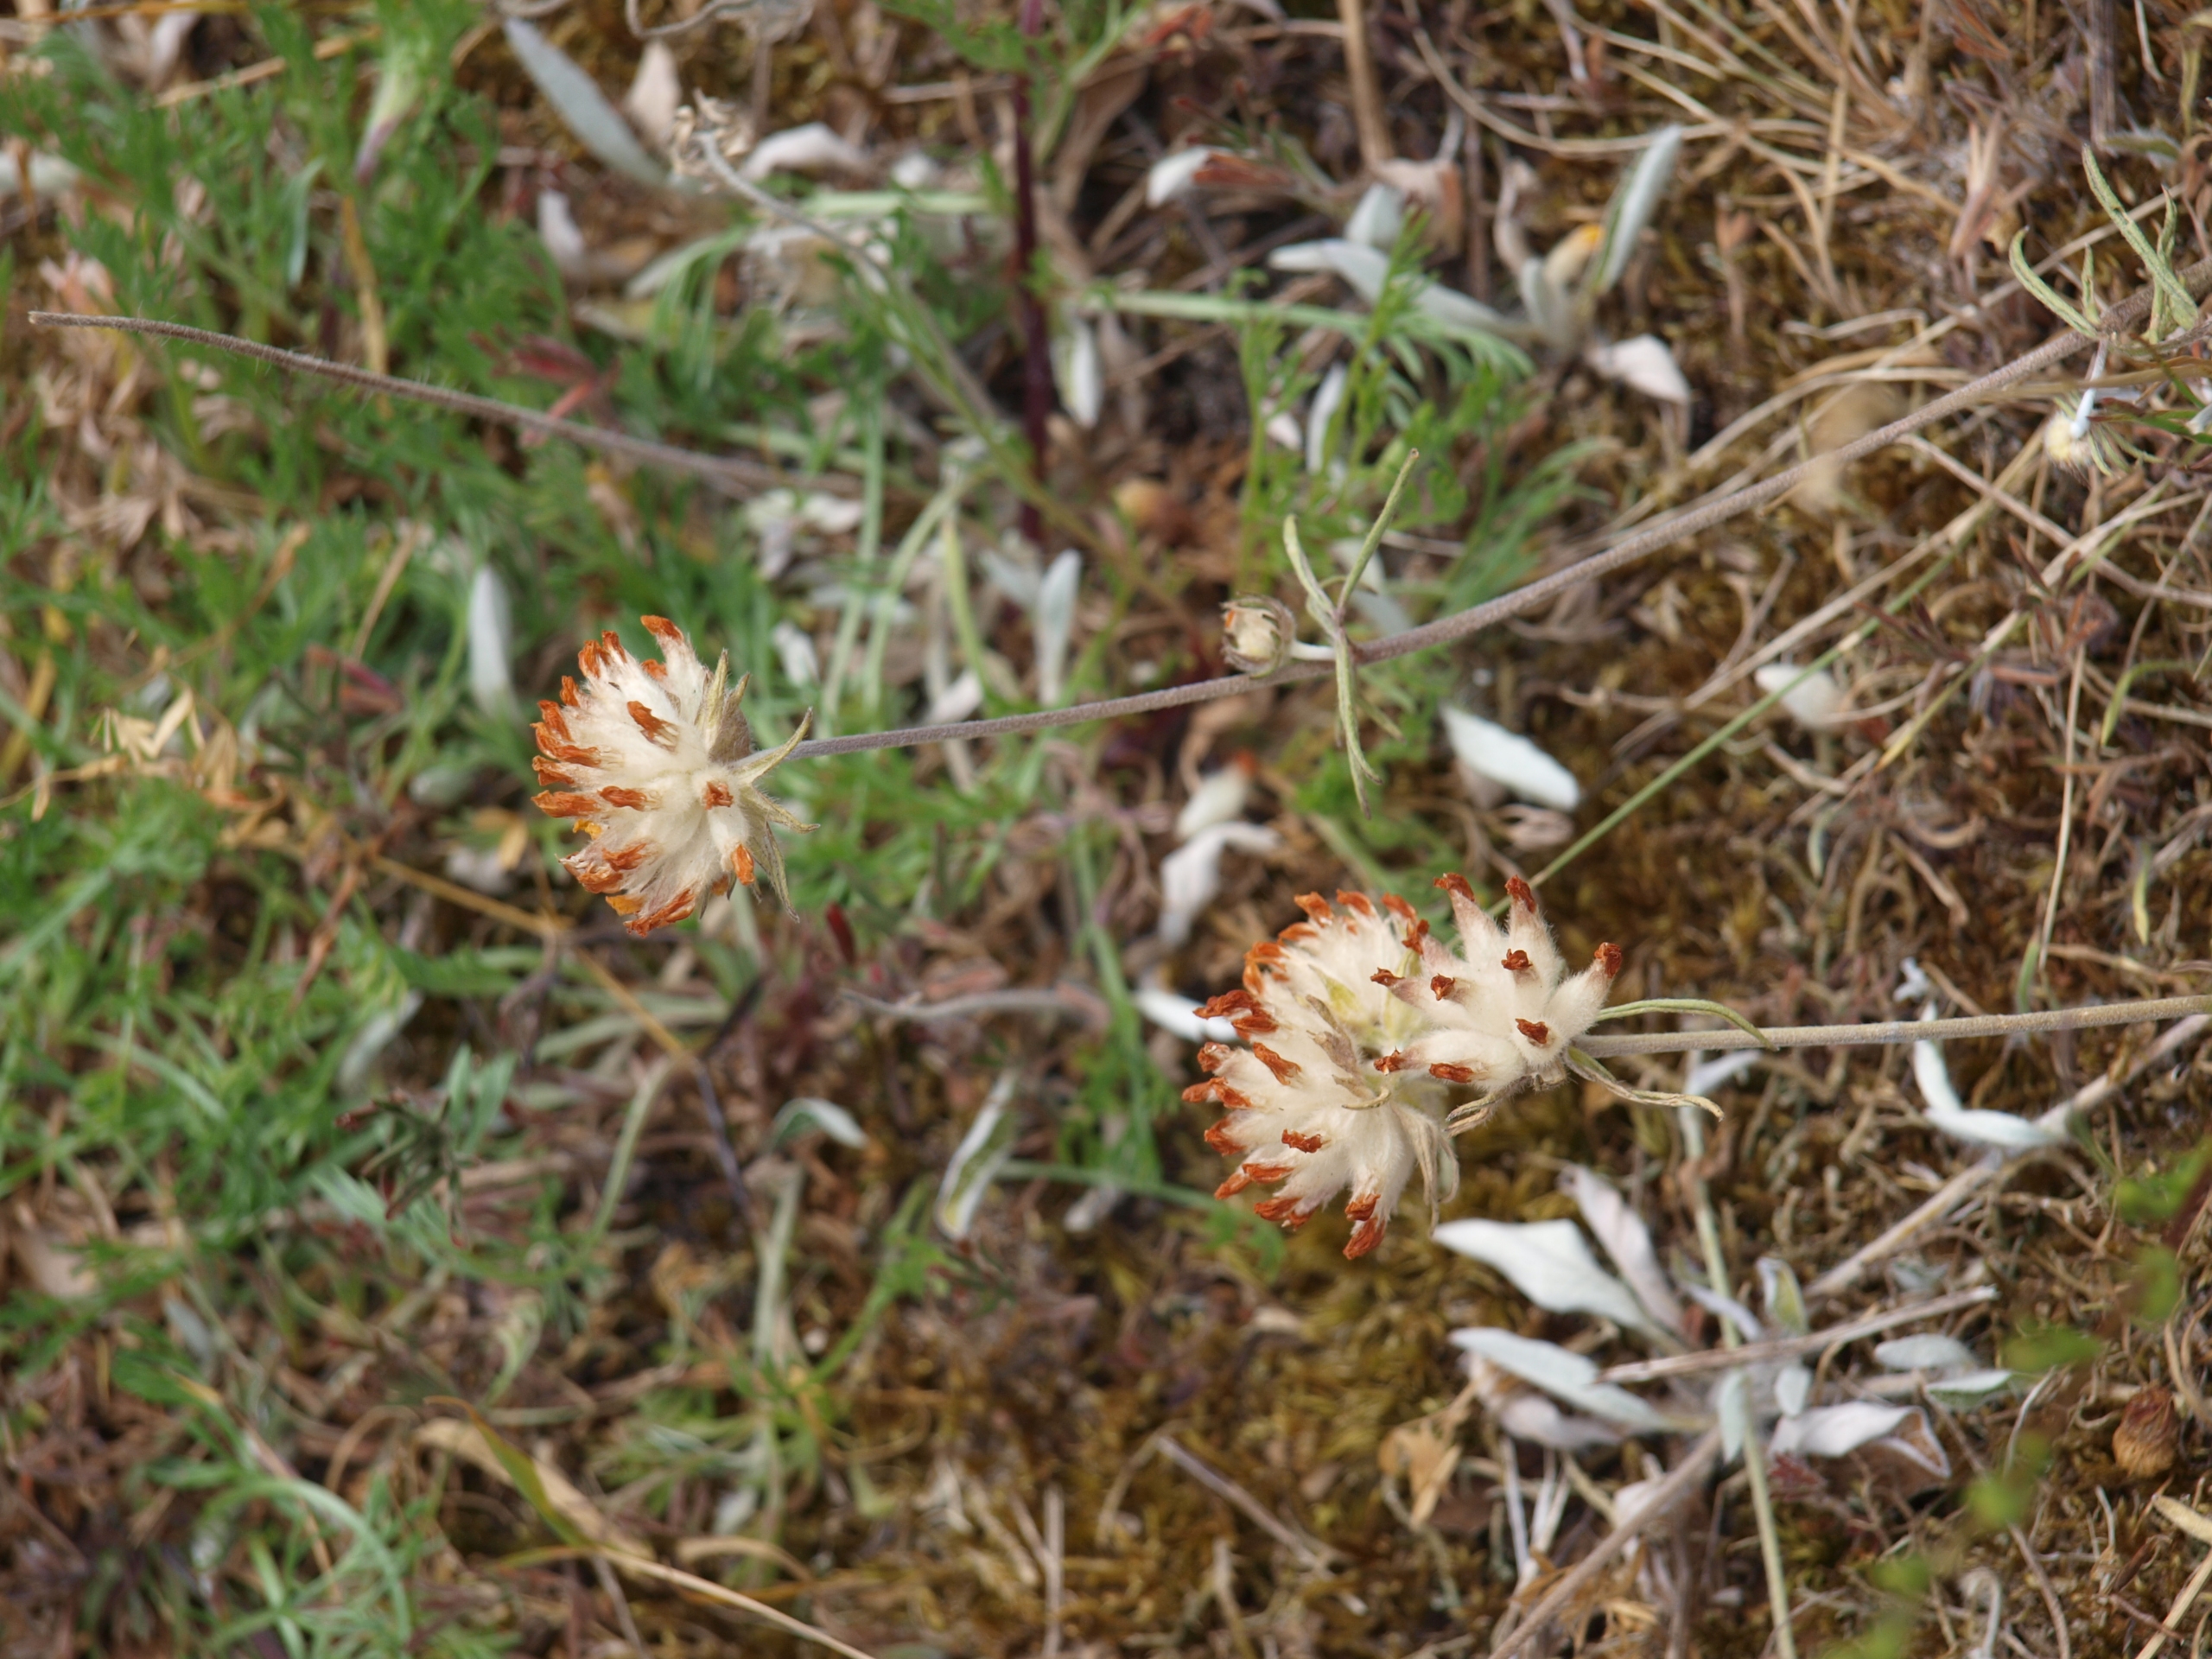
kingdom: Plantae
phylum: Tracheophyta
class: Magnoliopsida
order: Fabales
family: Fabaceae
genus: Anthyllis
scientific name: Anthyllis vulneraria
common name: Rundbælg
